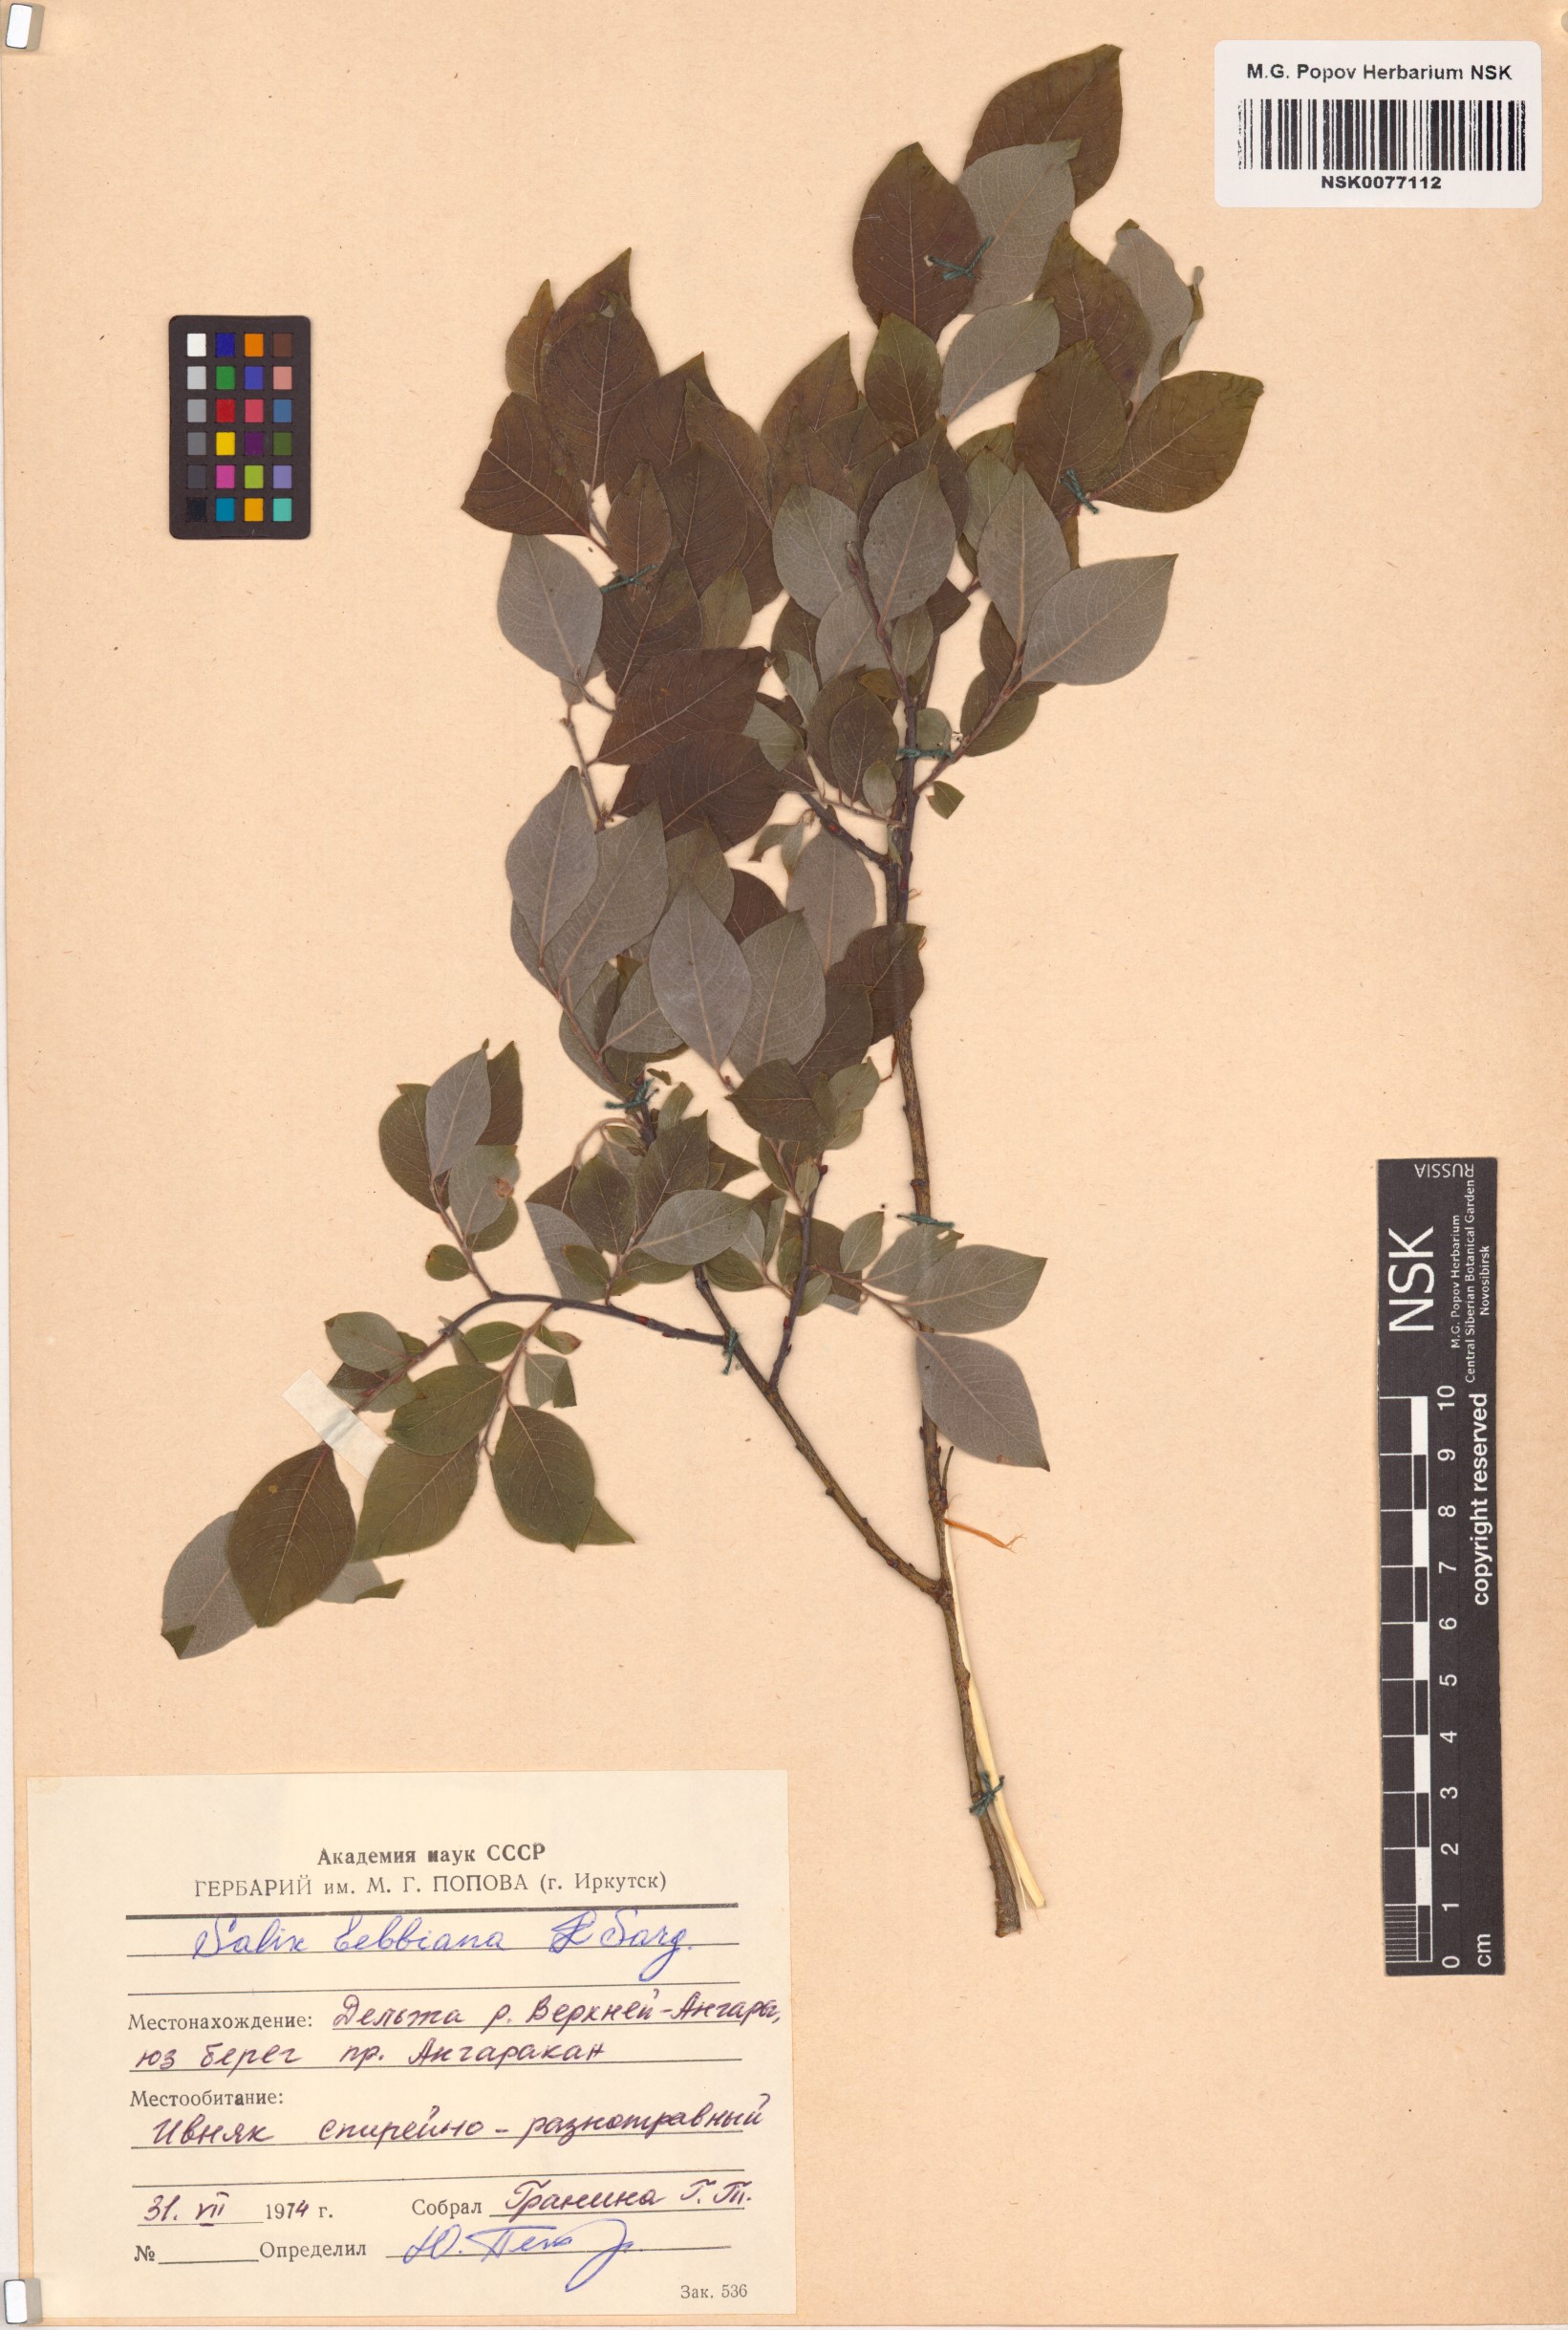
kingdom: Plantae
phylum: Tracheophyta
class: Magnoliopsida
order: Malpighiales
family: Salicaceae
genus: Salix
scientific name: Salix bebbiana
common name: Bebb's willow
